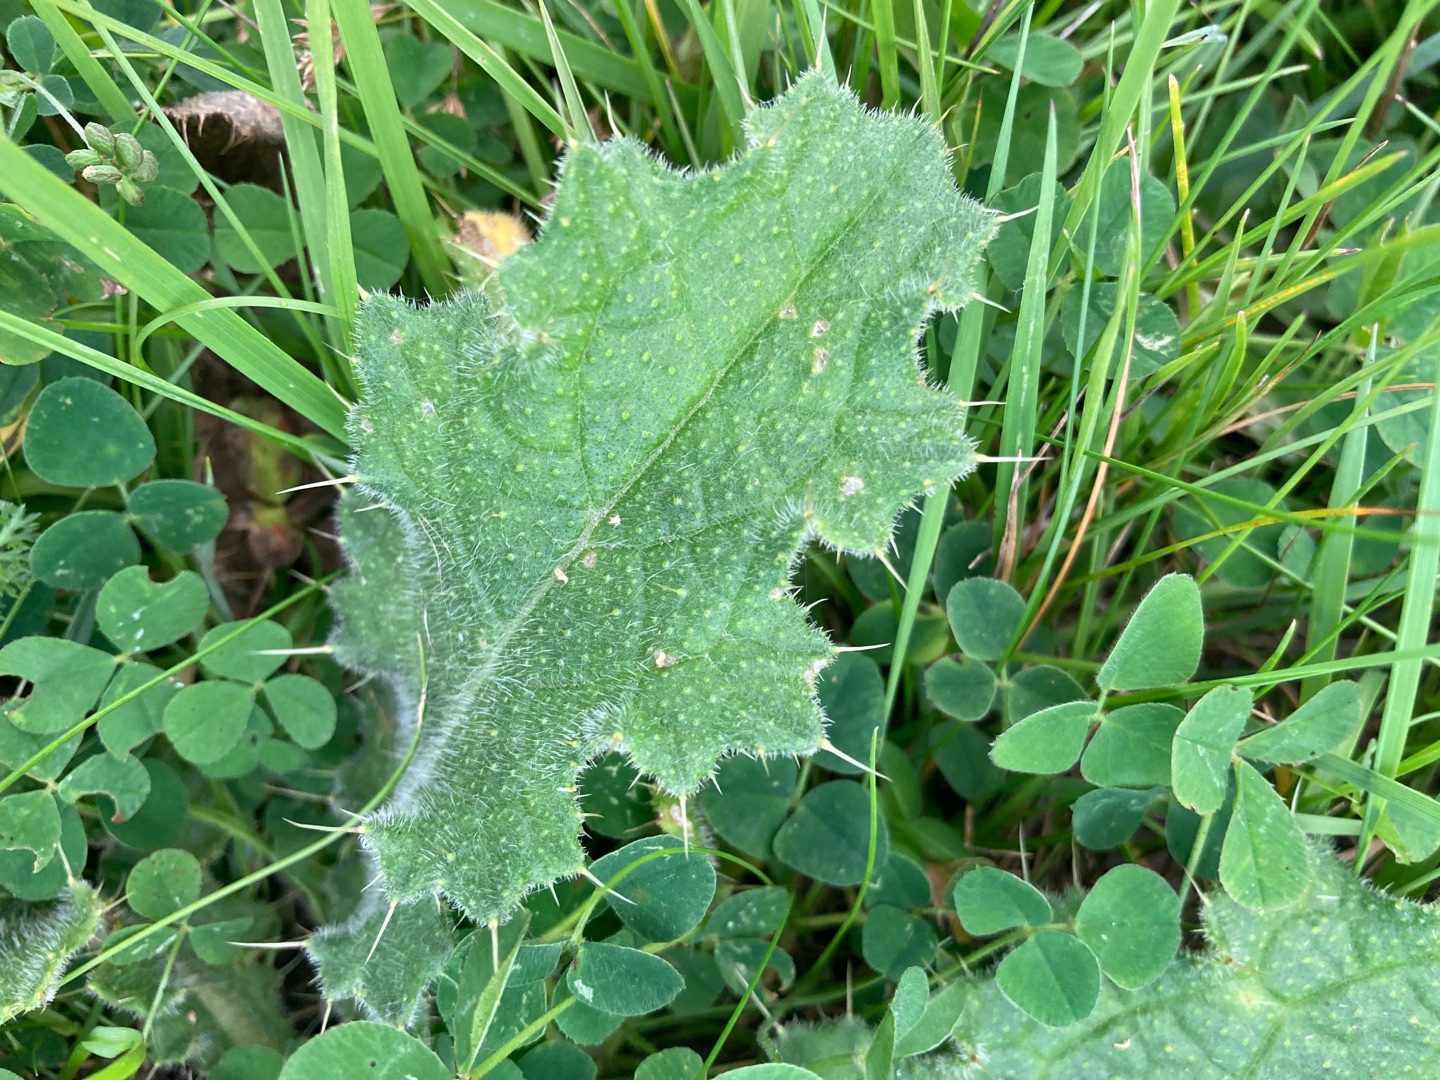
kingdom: Plantae
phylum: Tracheophyta
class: Magnoliopsida
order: Asterales
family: Asteraceae
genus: Cirsium
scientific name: Cirsium vulgare
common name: Horse-tidsel
